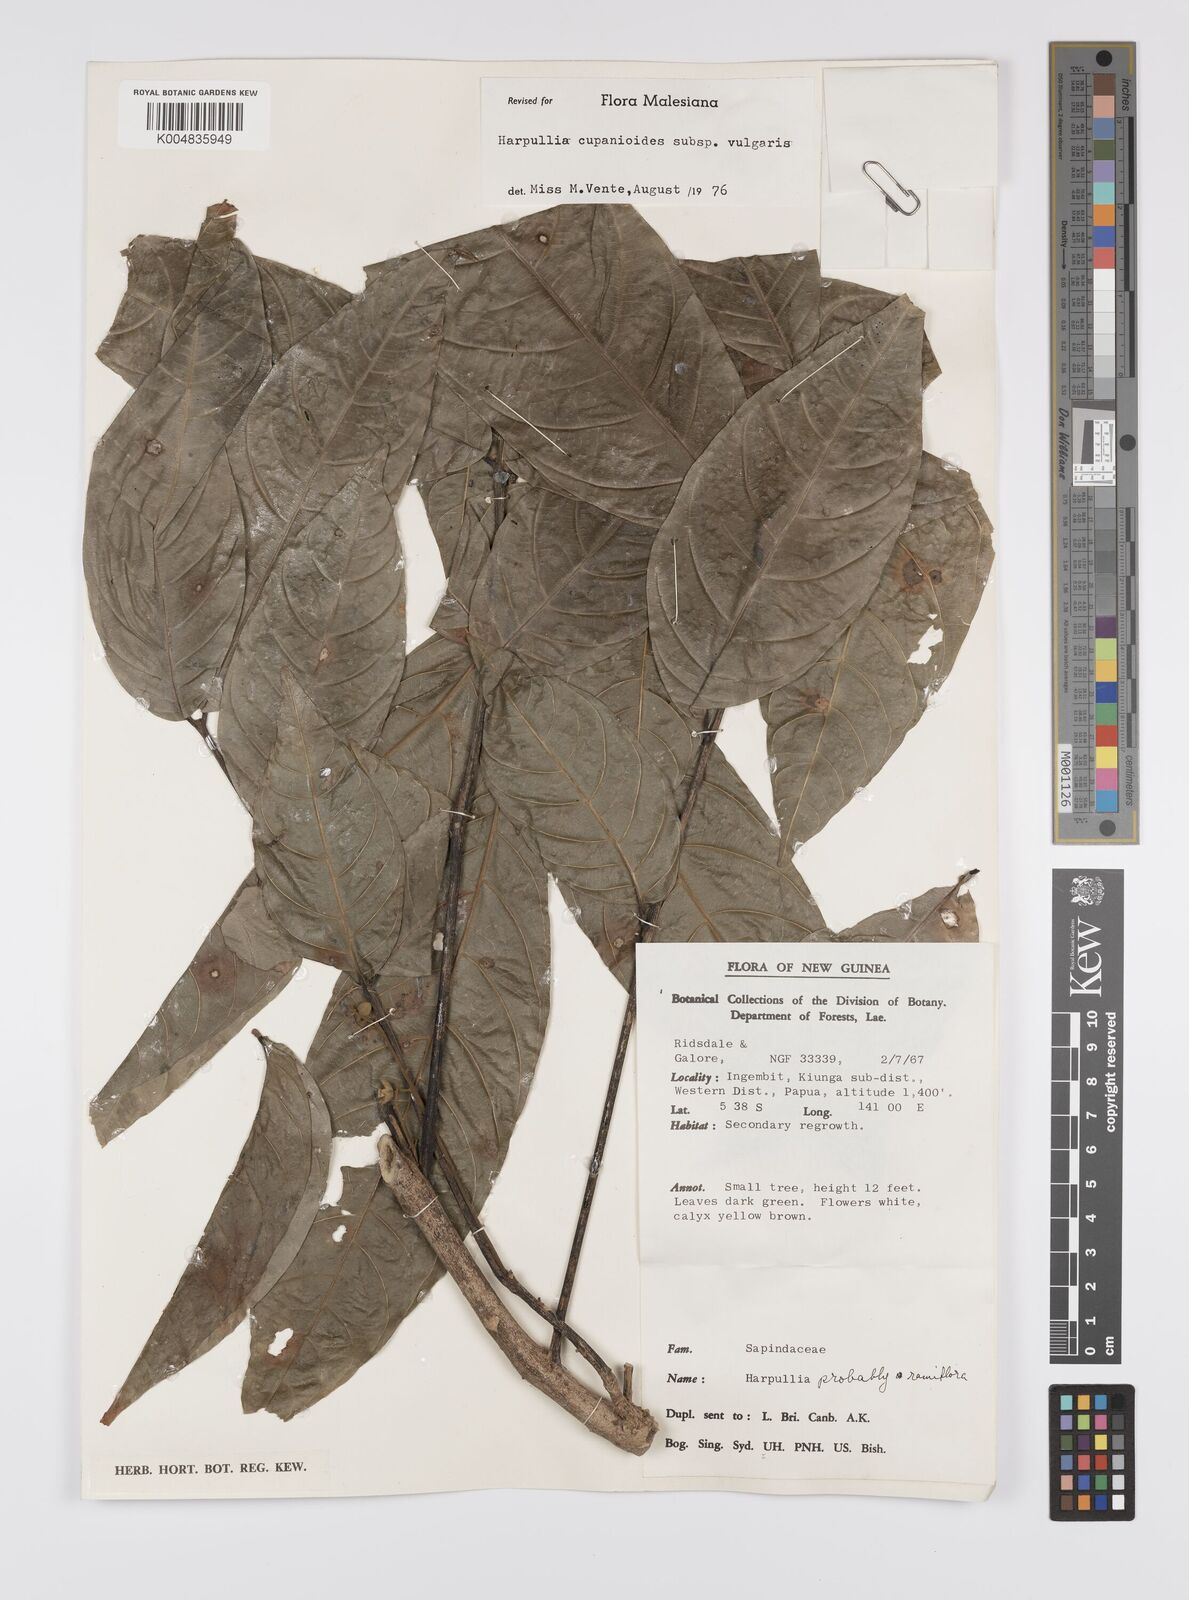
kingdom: Plantae
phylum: Tracheophyta
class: Magnoliopsida
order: Sapindales
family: Sapindaceae
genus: Harpullia
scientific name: Harpullia cupanioides
